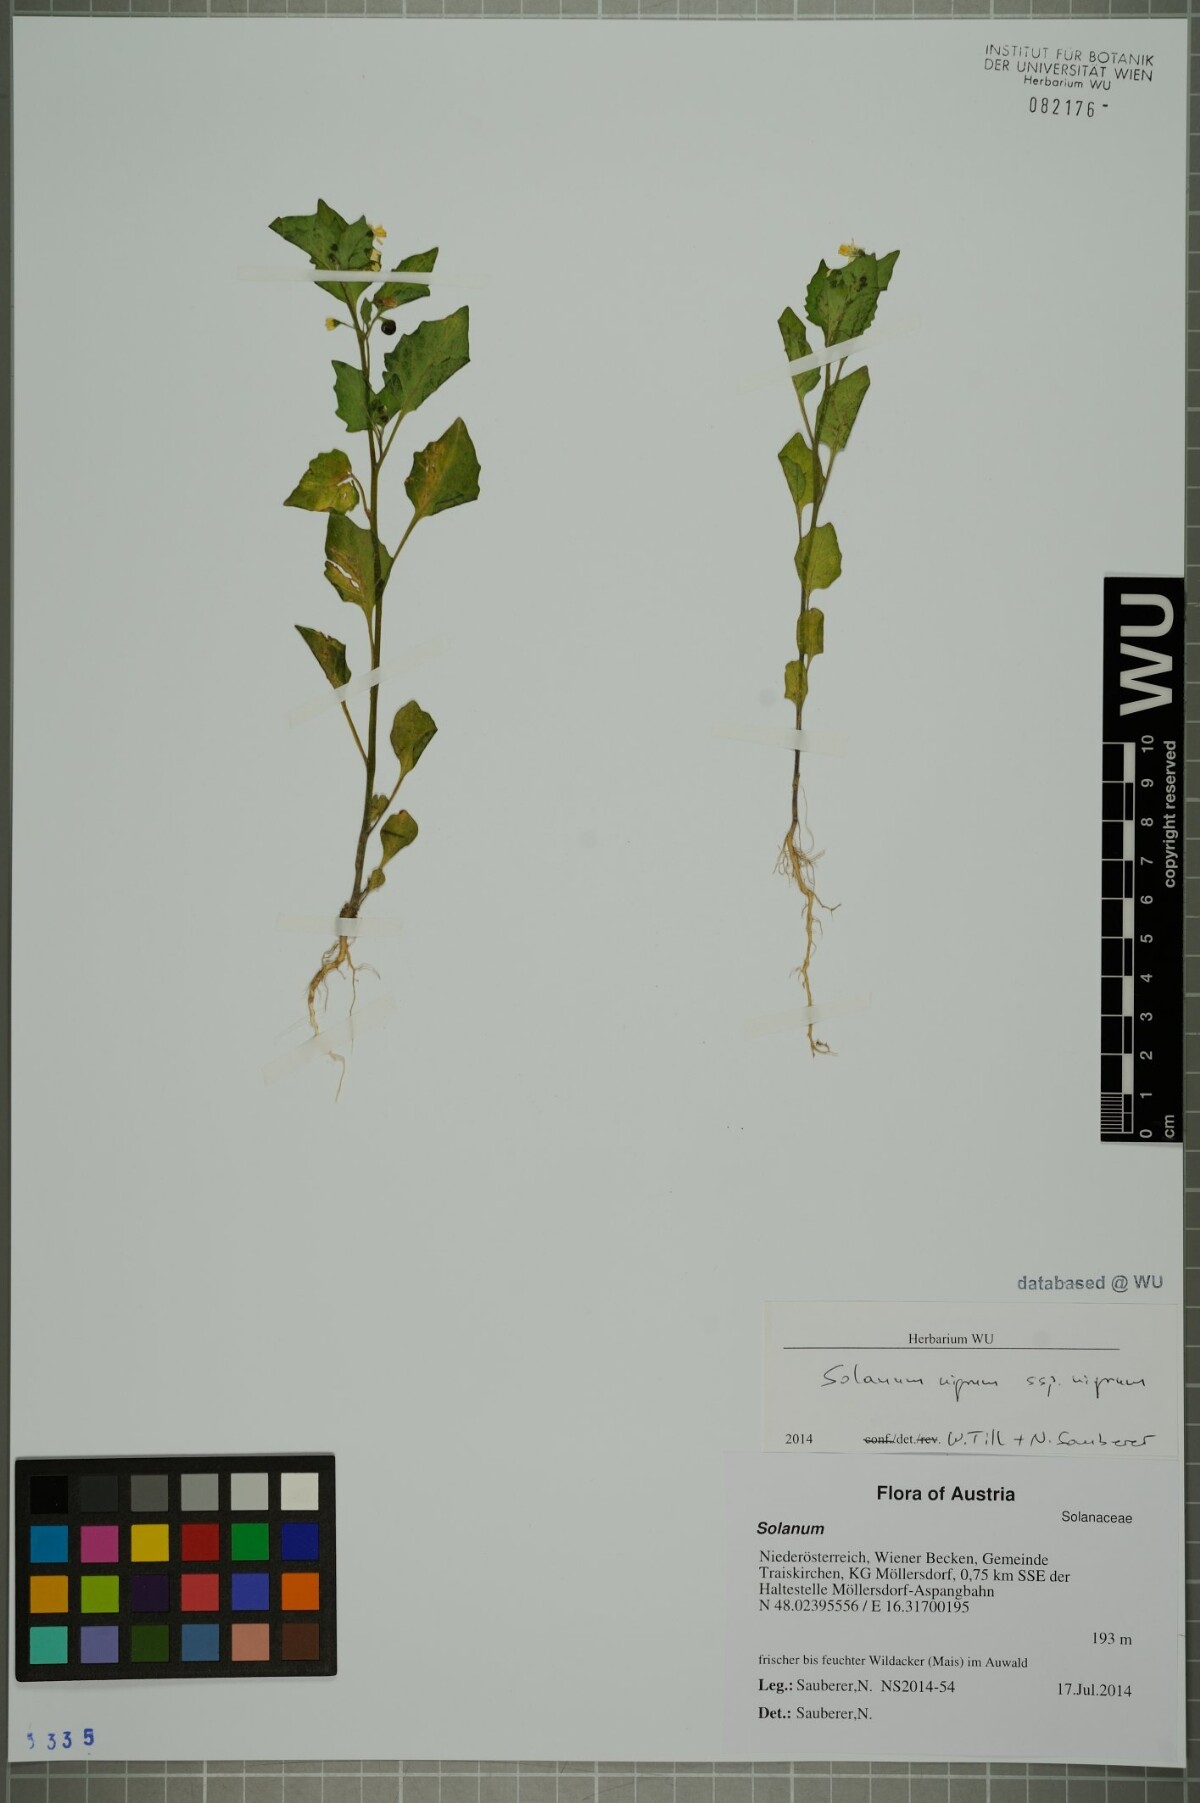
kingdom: Plantae
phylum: Tracheophyta
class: Magnoliopsida
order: Solanales
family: Solanaceae
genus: Solanum
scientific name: Solanum nigrum
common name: Black nightshade
